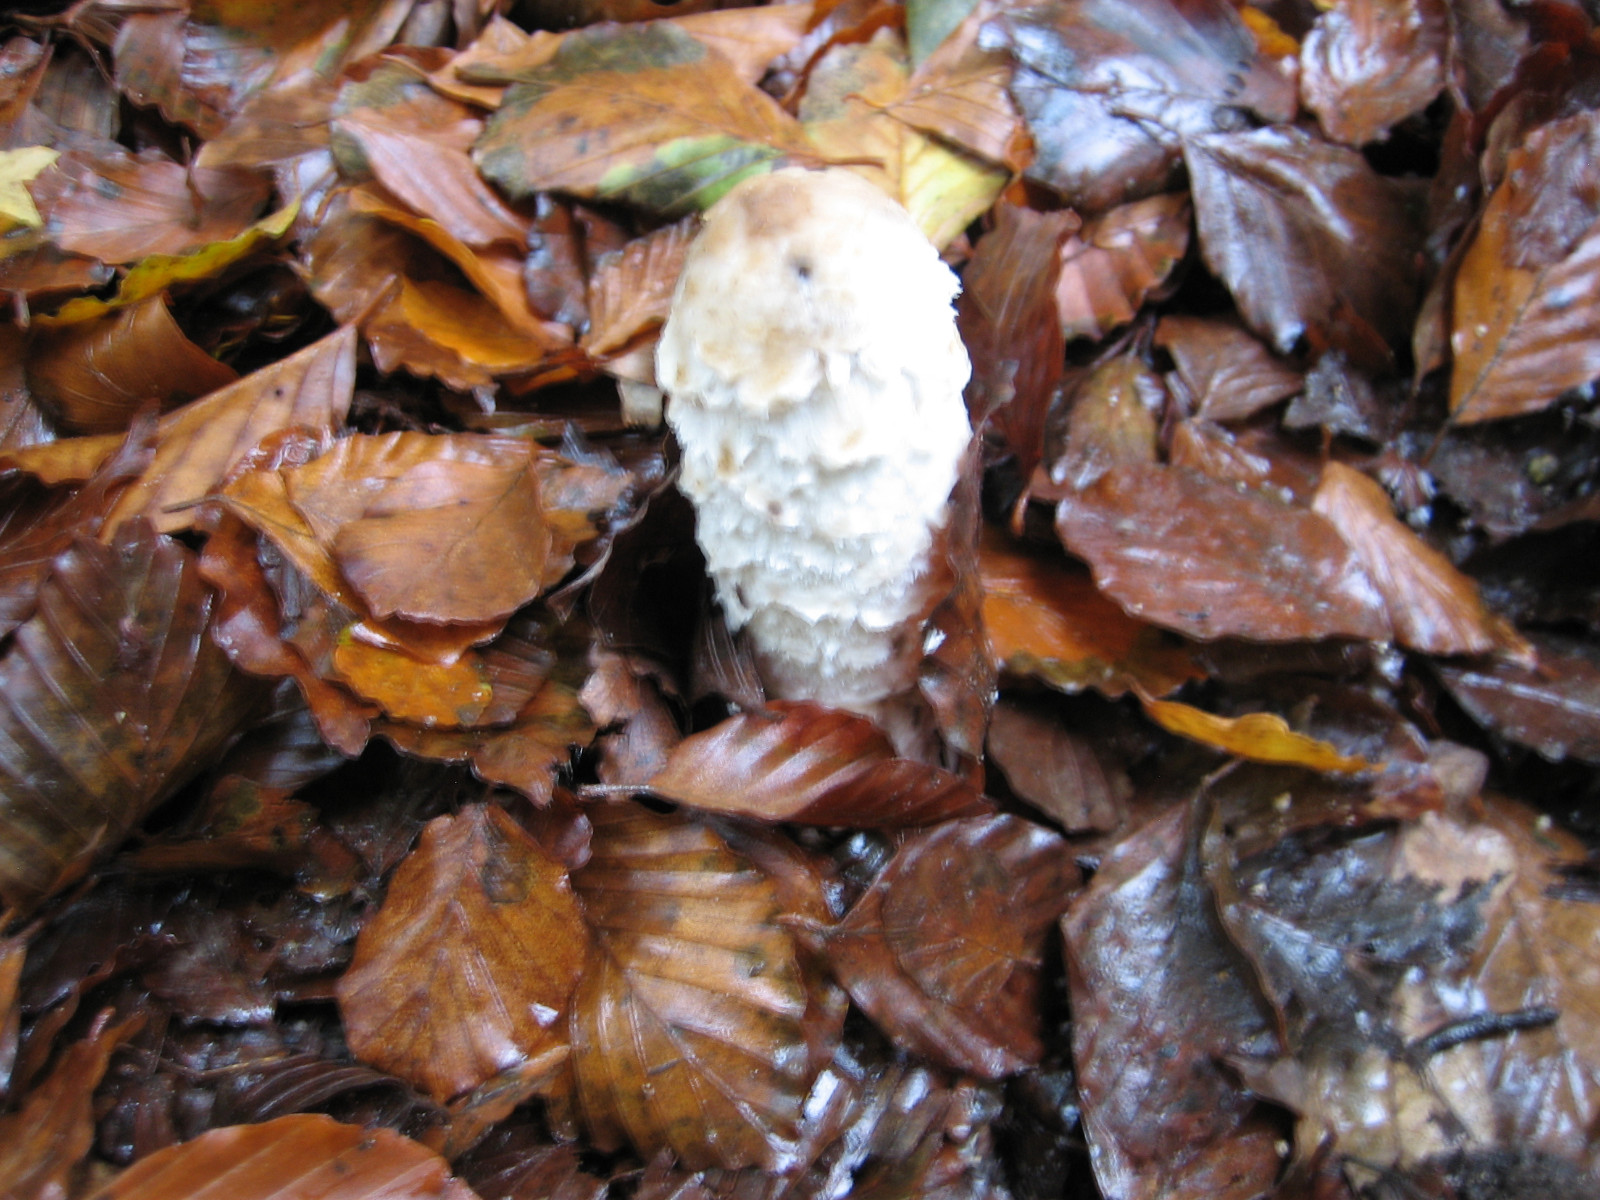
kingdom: Fungi
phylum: Basidiomycota
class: Agaricomycetes
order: Agaricales
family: Agaricaceae
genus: Coprinus
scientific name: Coprinus comatus
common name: stor parykhat
